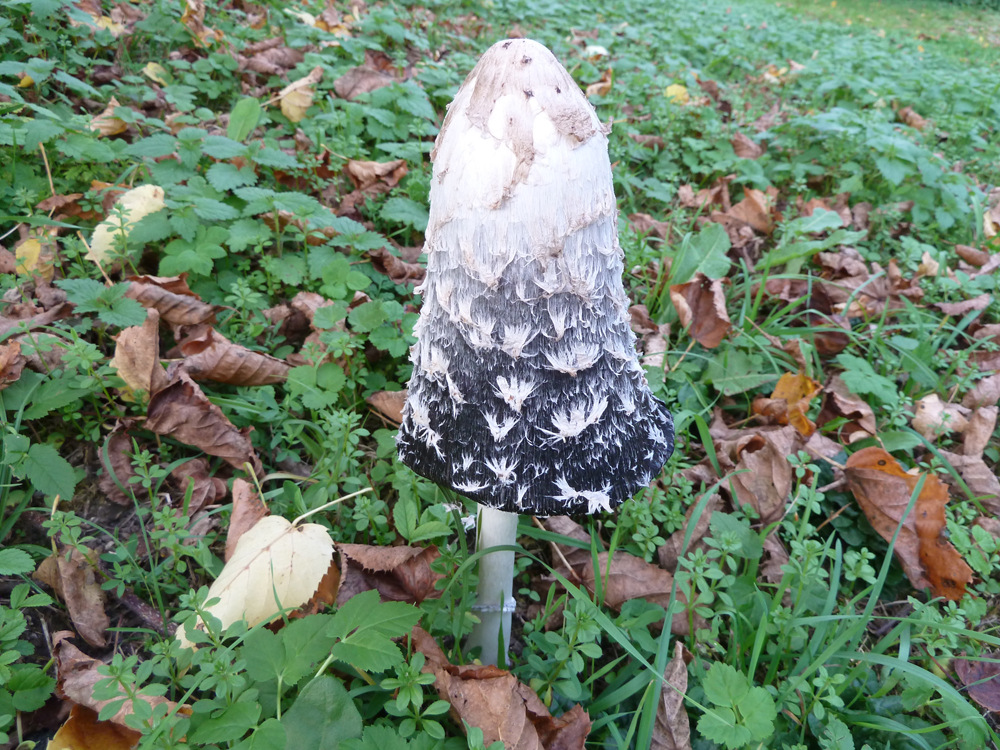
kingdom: Fungi
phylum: Basidiomycota
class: Agaricomycetes
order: Agaricales
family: Agaricaceae
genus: Coprinus
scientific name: Coprinus comatus
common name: Lawyer's wig
